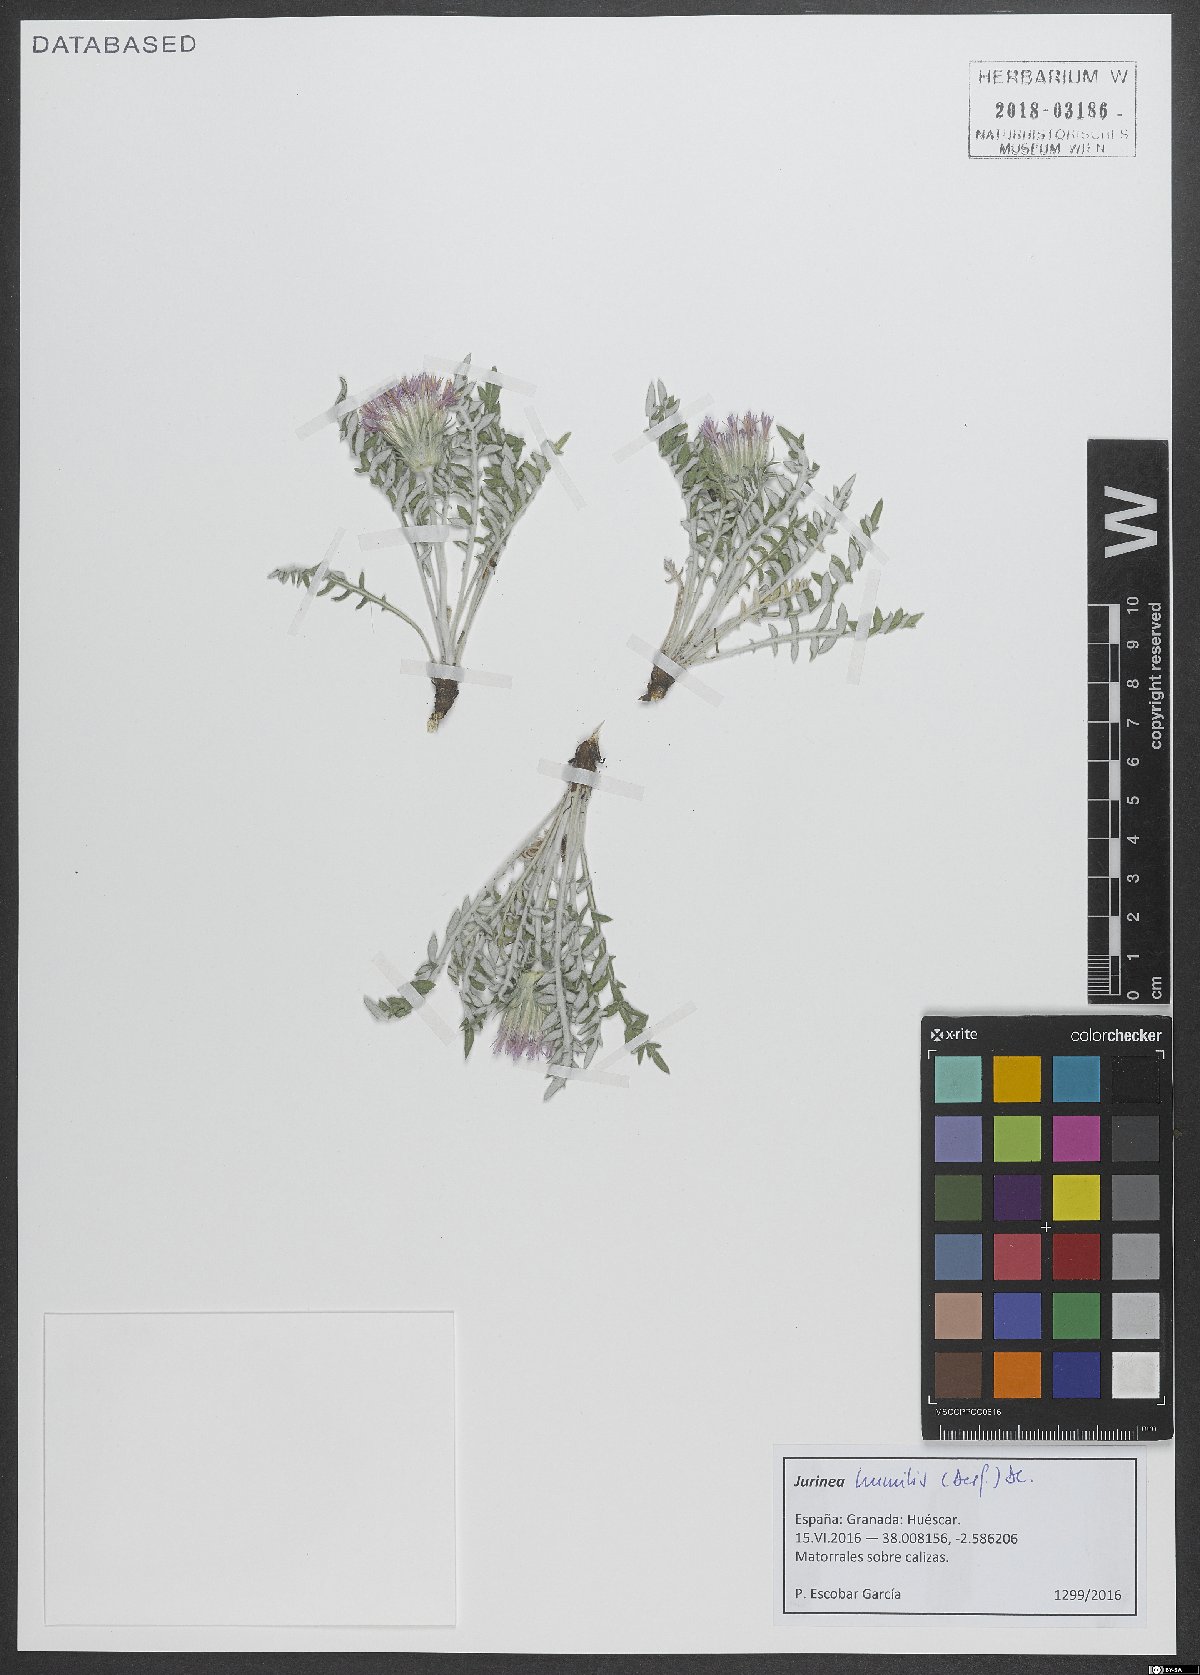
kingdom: Plantae
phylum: Tracheophyta
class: Magnoliopsida
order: Asterales
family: Asteraceae
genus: Jurinea
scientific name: Jurinea humilis
